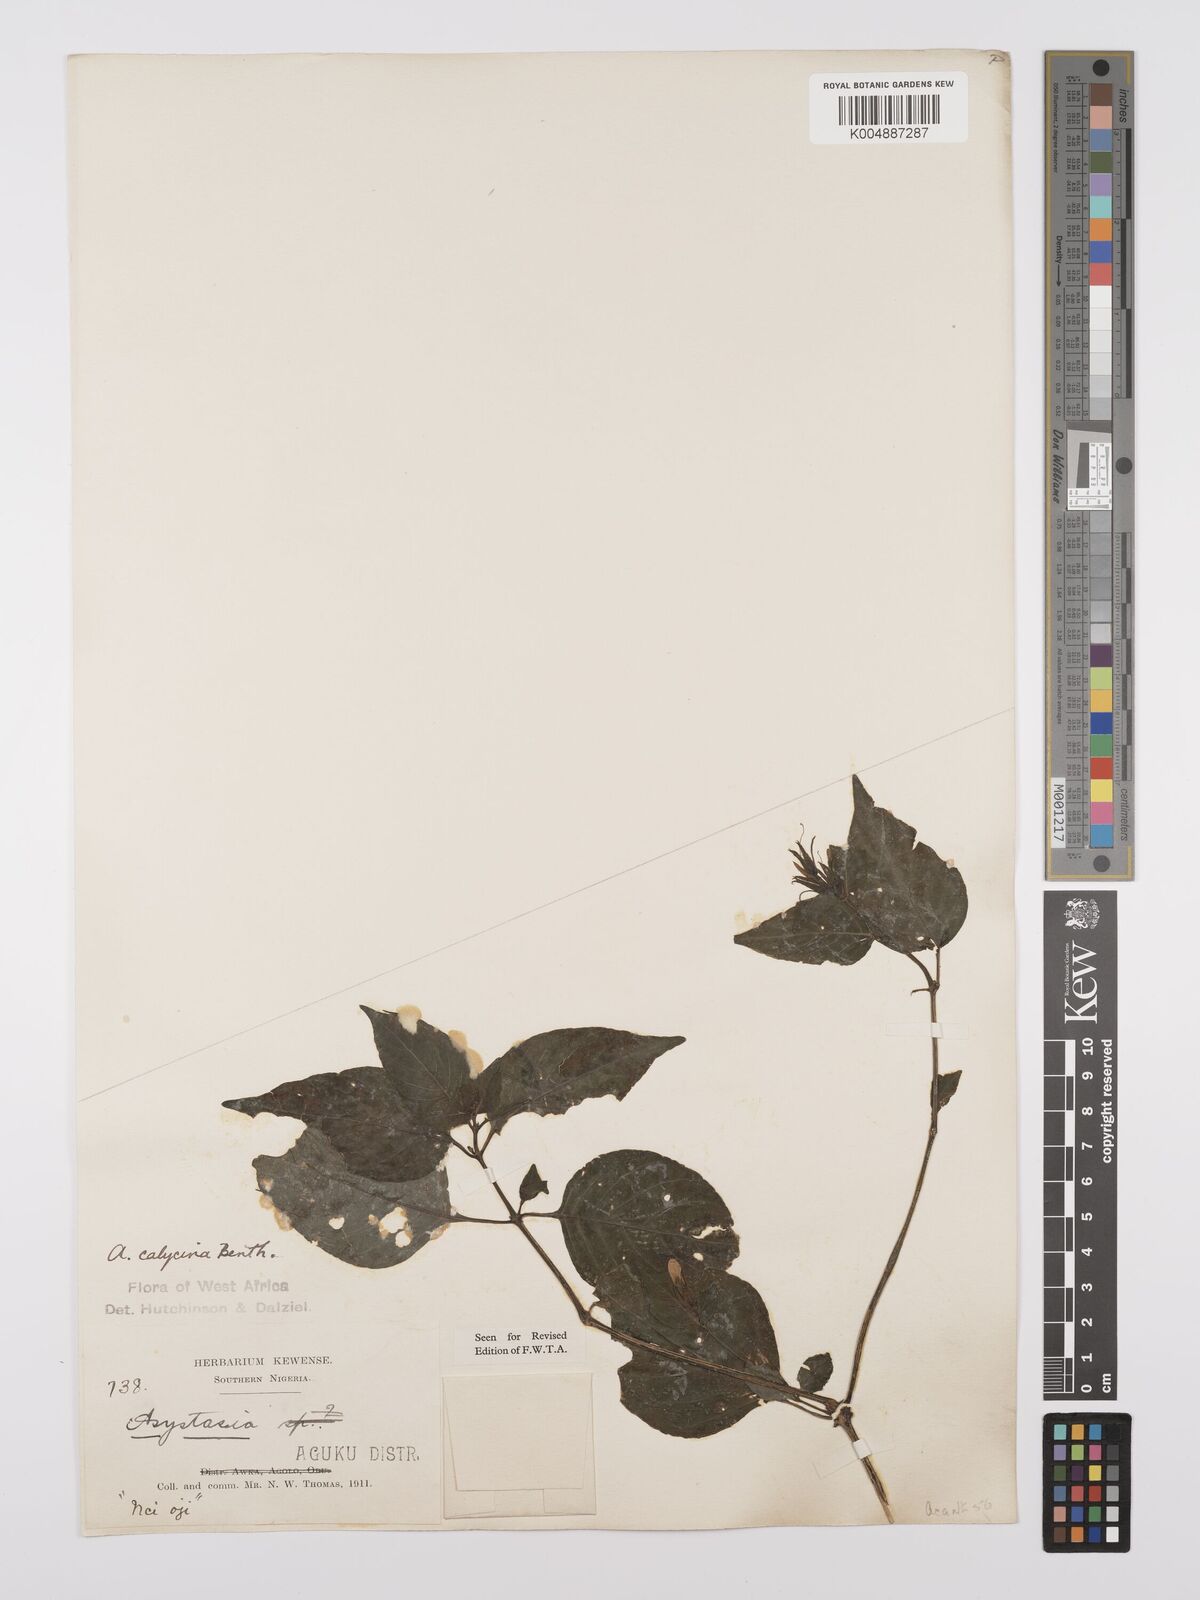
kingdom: Plantae
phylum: Tracheophyta
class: Magnoliopsida
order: Lamiales
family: Acanthaceae
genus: Asystasia
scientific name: Asystasia buettneri
